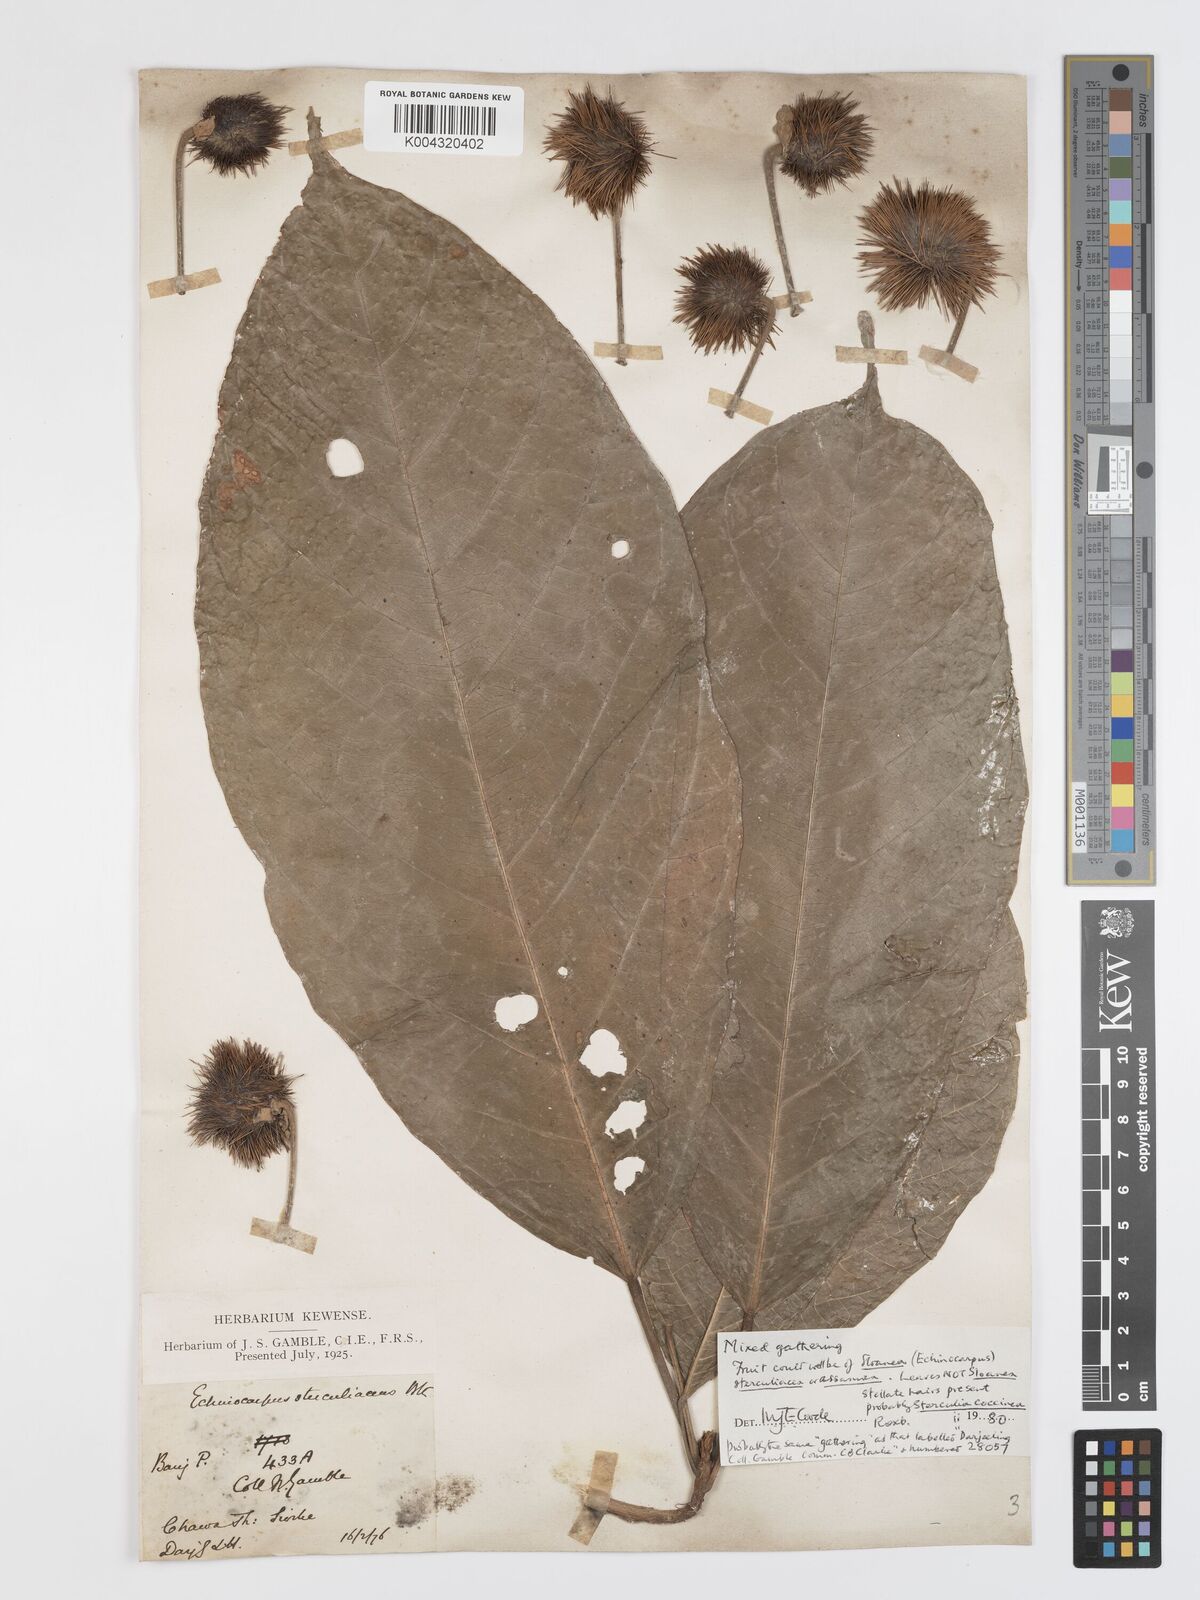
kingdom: Plantae
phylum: Tracheophyta
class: Magnoliopsida
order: Oxalidales
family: Elaeocarpaceae
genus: Sloanea
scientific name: Sloanea sterculiacea
